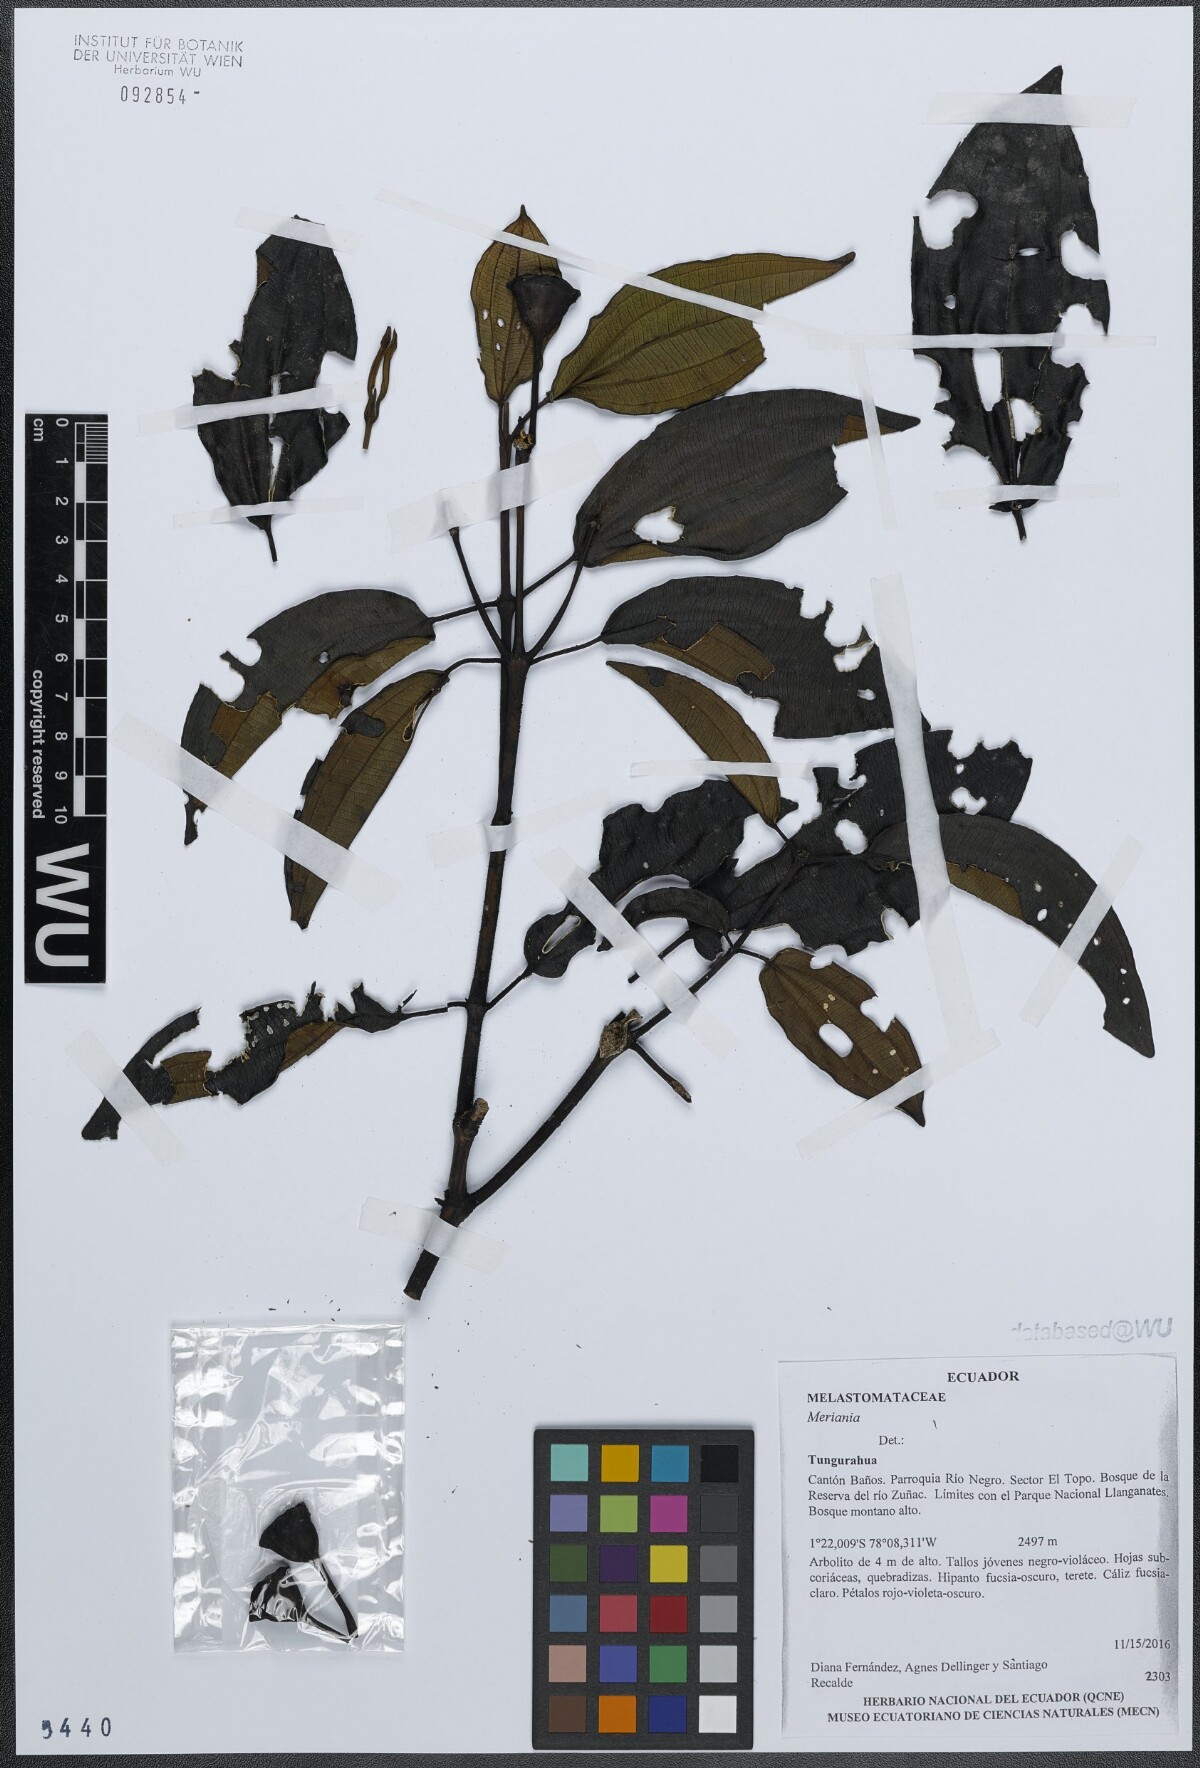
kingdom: Plantae
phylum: Tracheophyta
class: Magnoliopsida
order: Myrtales
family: Melastomataceae
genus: Meriania
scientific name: Meriania
